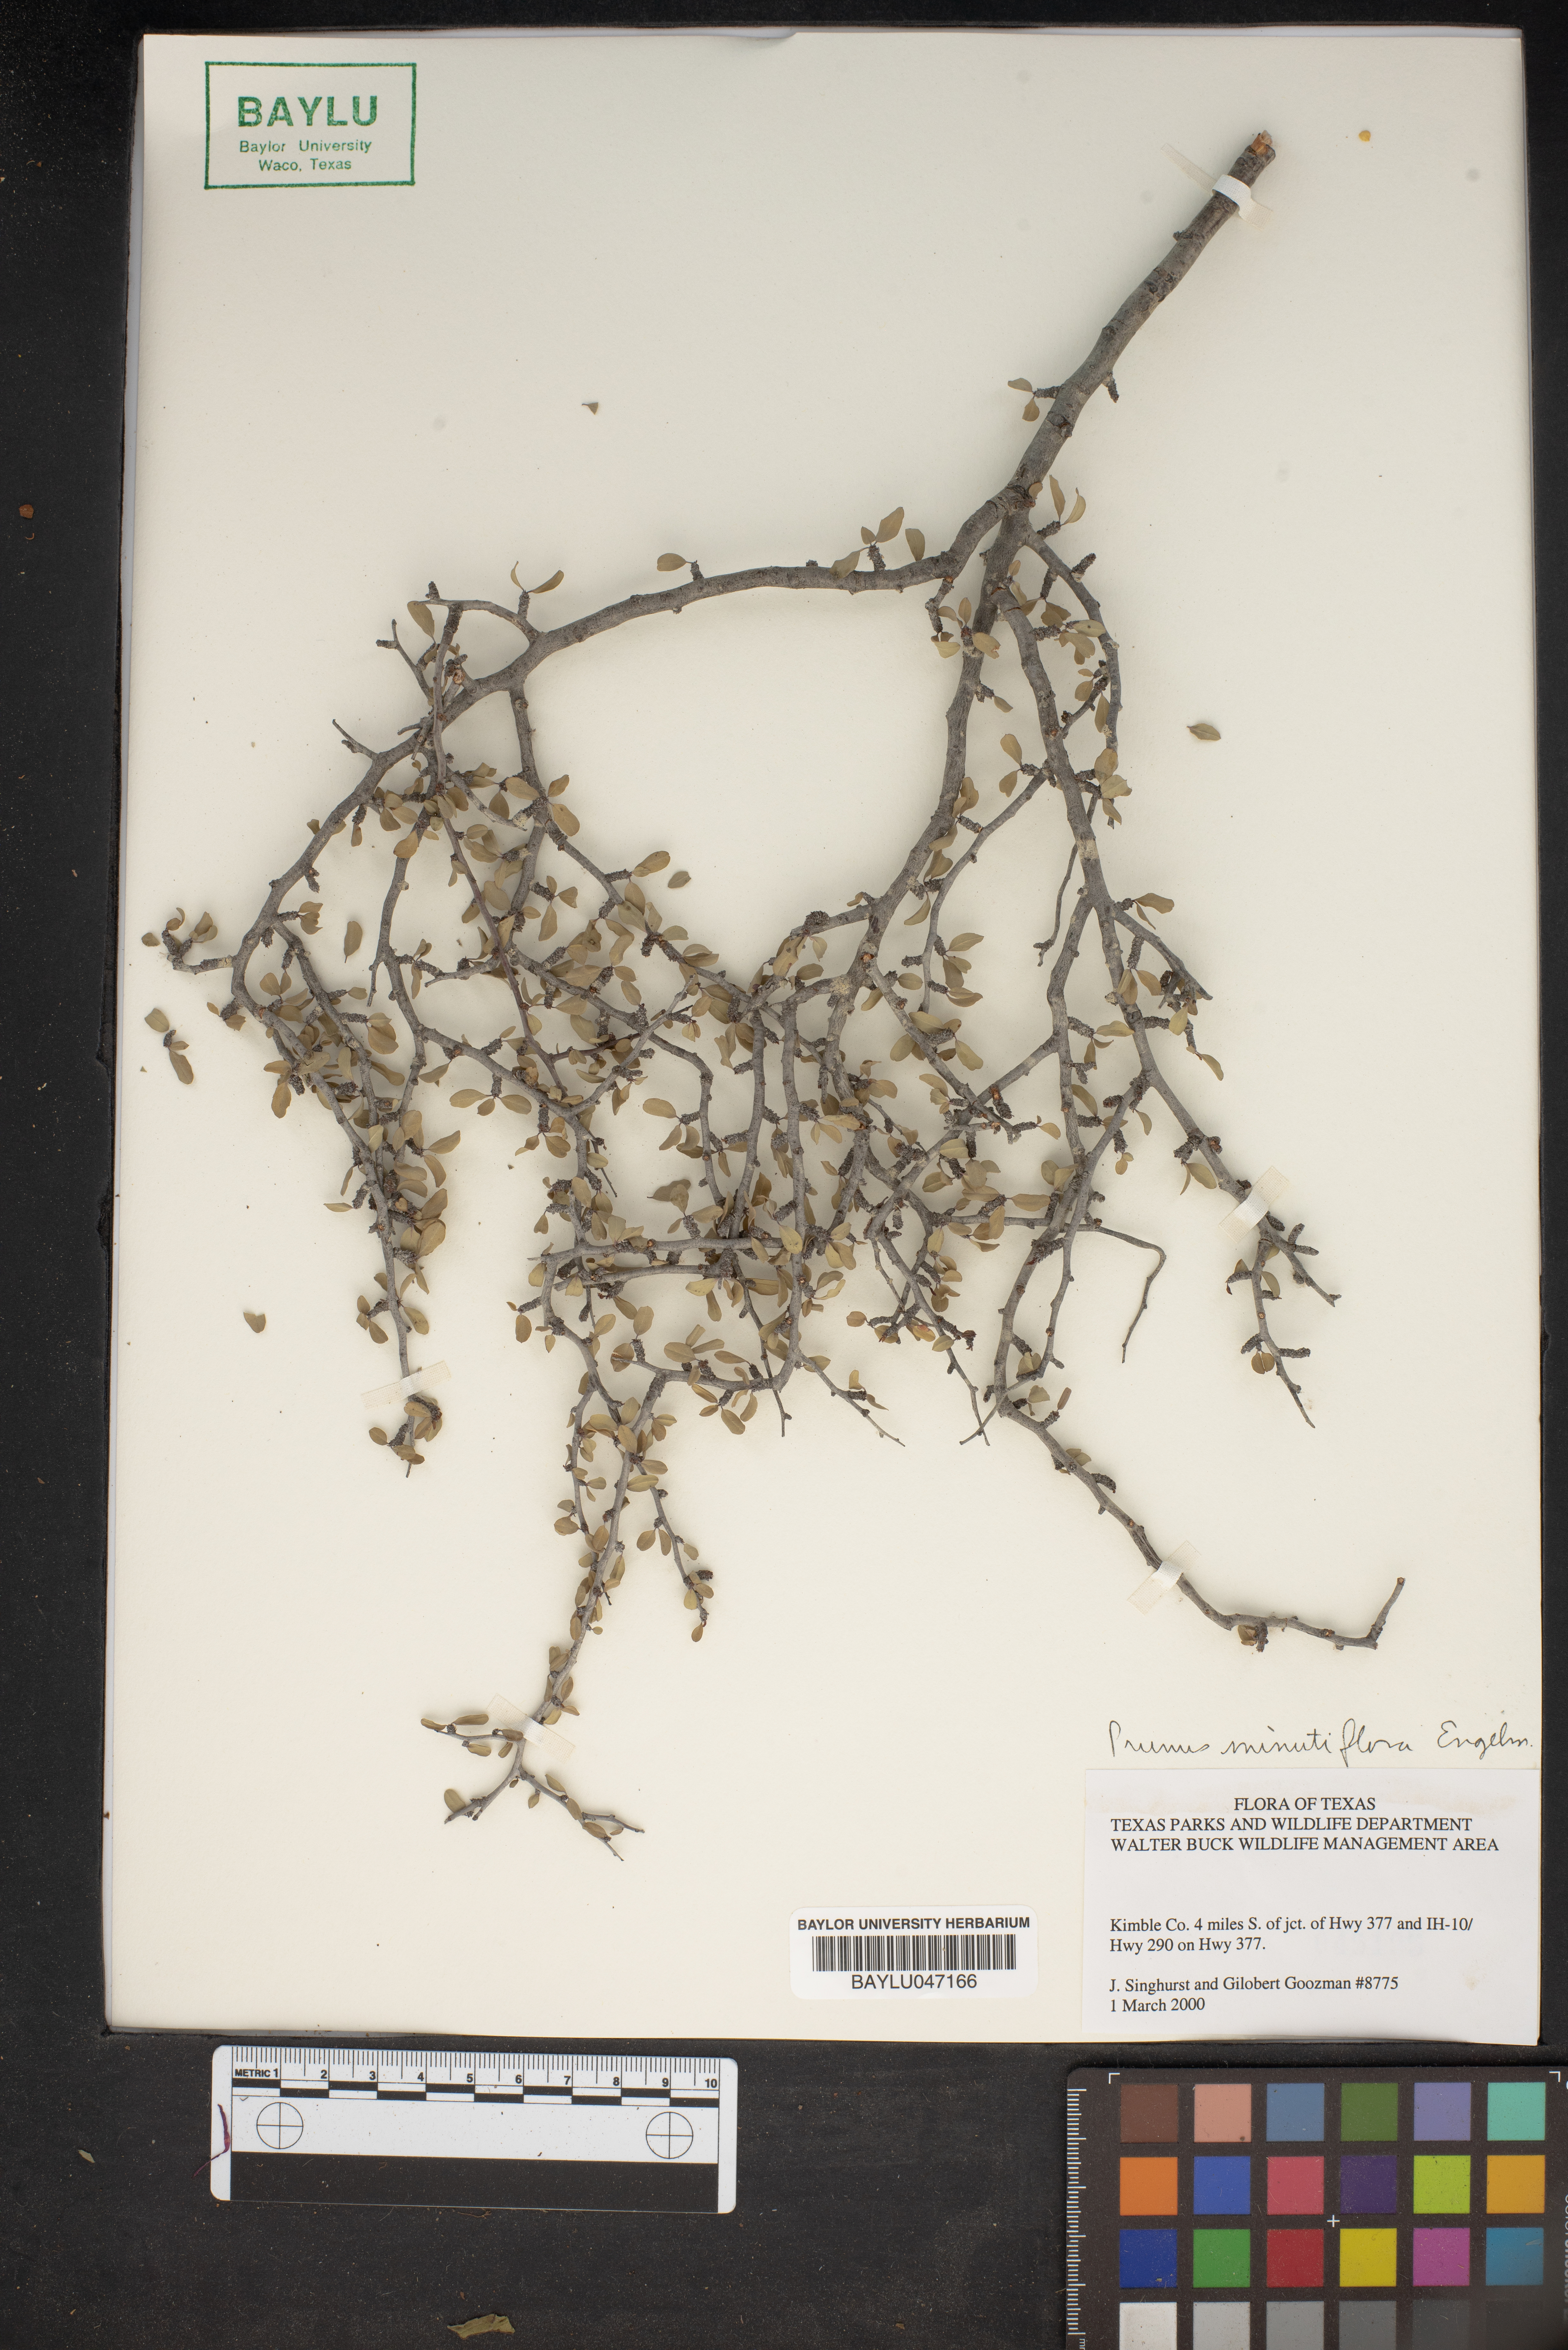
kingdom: Plantae
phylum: Tracheophyta
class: Magnoliopsida
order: Rosales
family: Rosaceae
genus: Prunus
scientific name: Prunus minutiflora
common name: Texas almond
